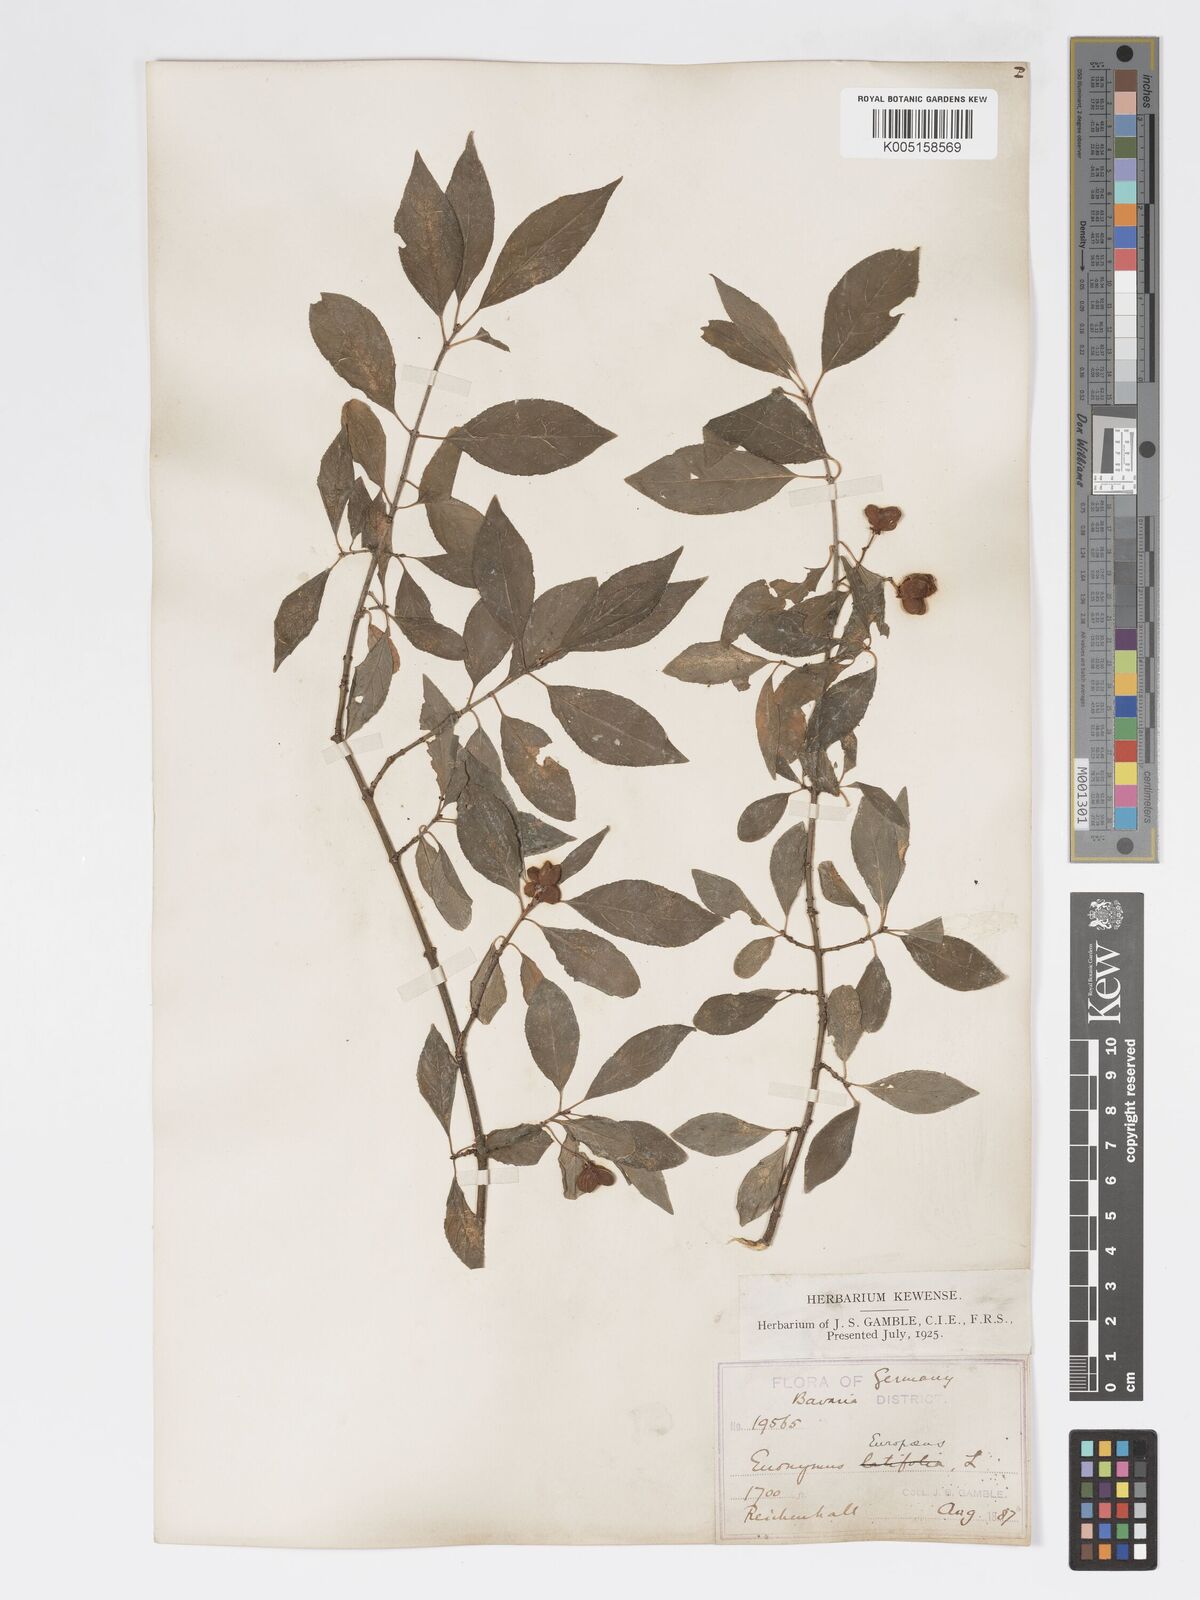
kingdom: Plantae
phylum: Tracheophyta
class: Magnoliopsida
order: Celastrales
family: Celastraceae
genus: Euonymus
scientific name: Euonymus europaeus
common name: Spindle
